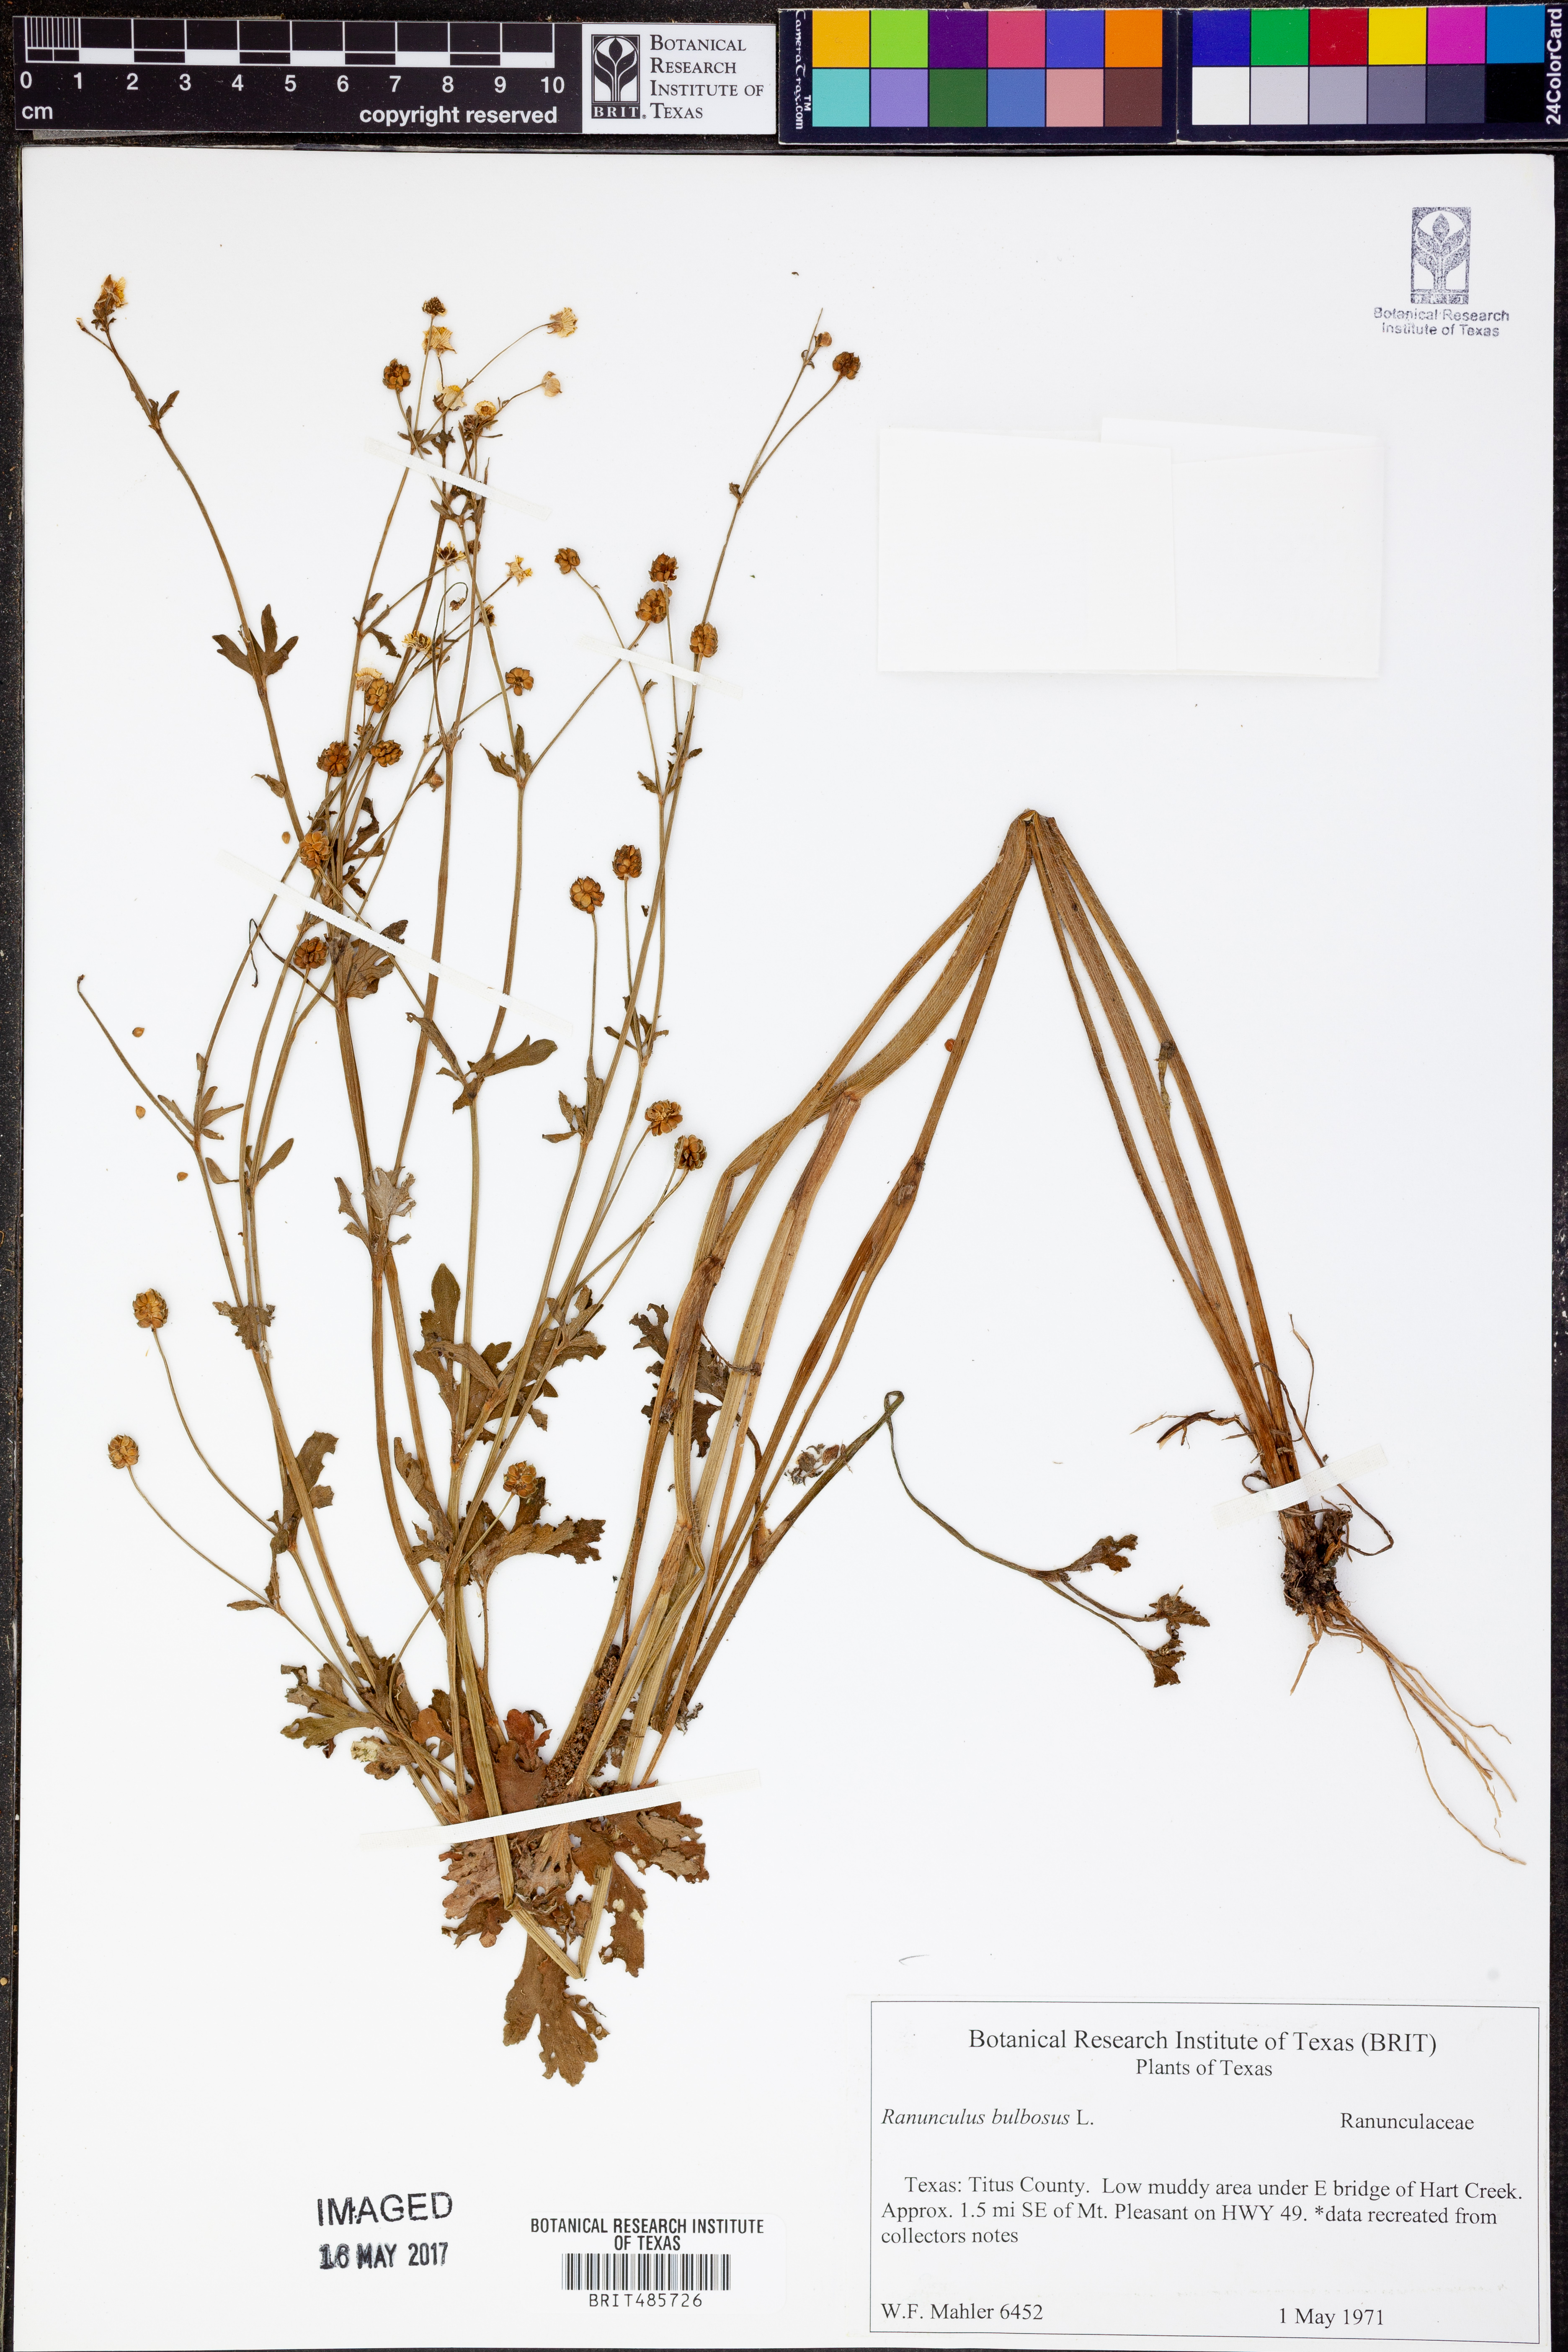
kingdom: Plantae
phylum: Tracheophyta
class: Magnoliopsida
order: Ranunculales
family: Ranunculaceae
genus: Ranunculus
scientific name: Ranunculus bulbosus
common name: Bulbous buttercup
